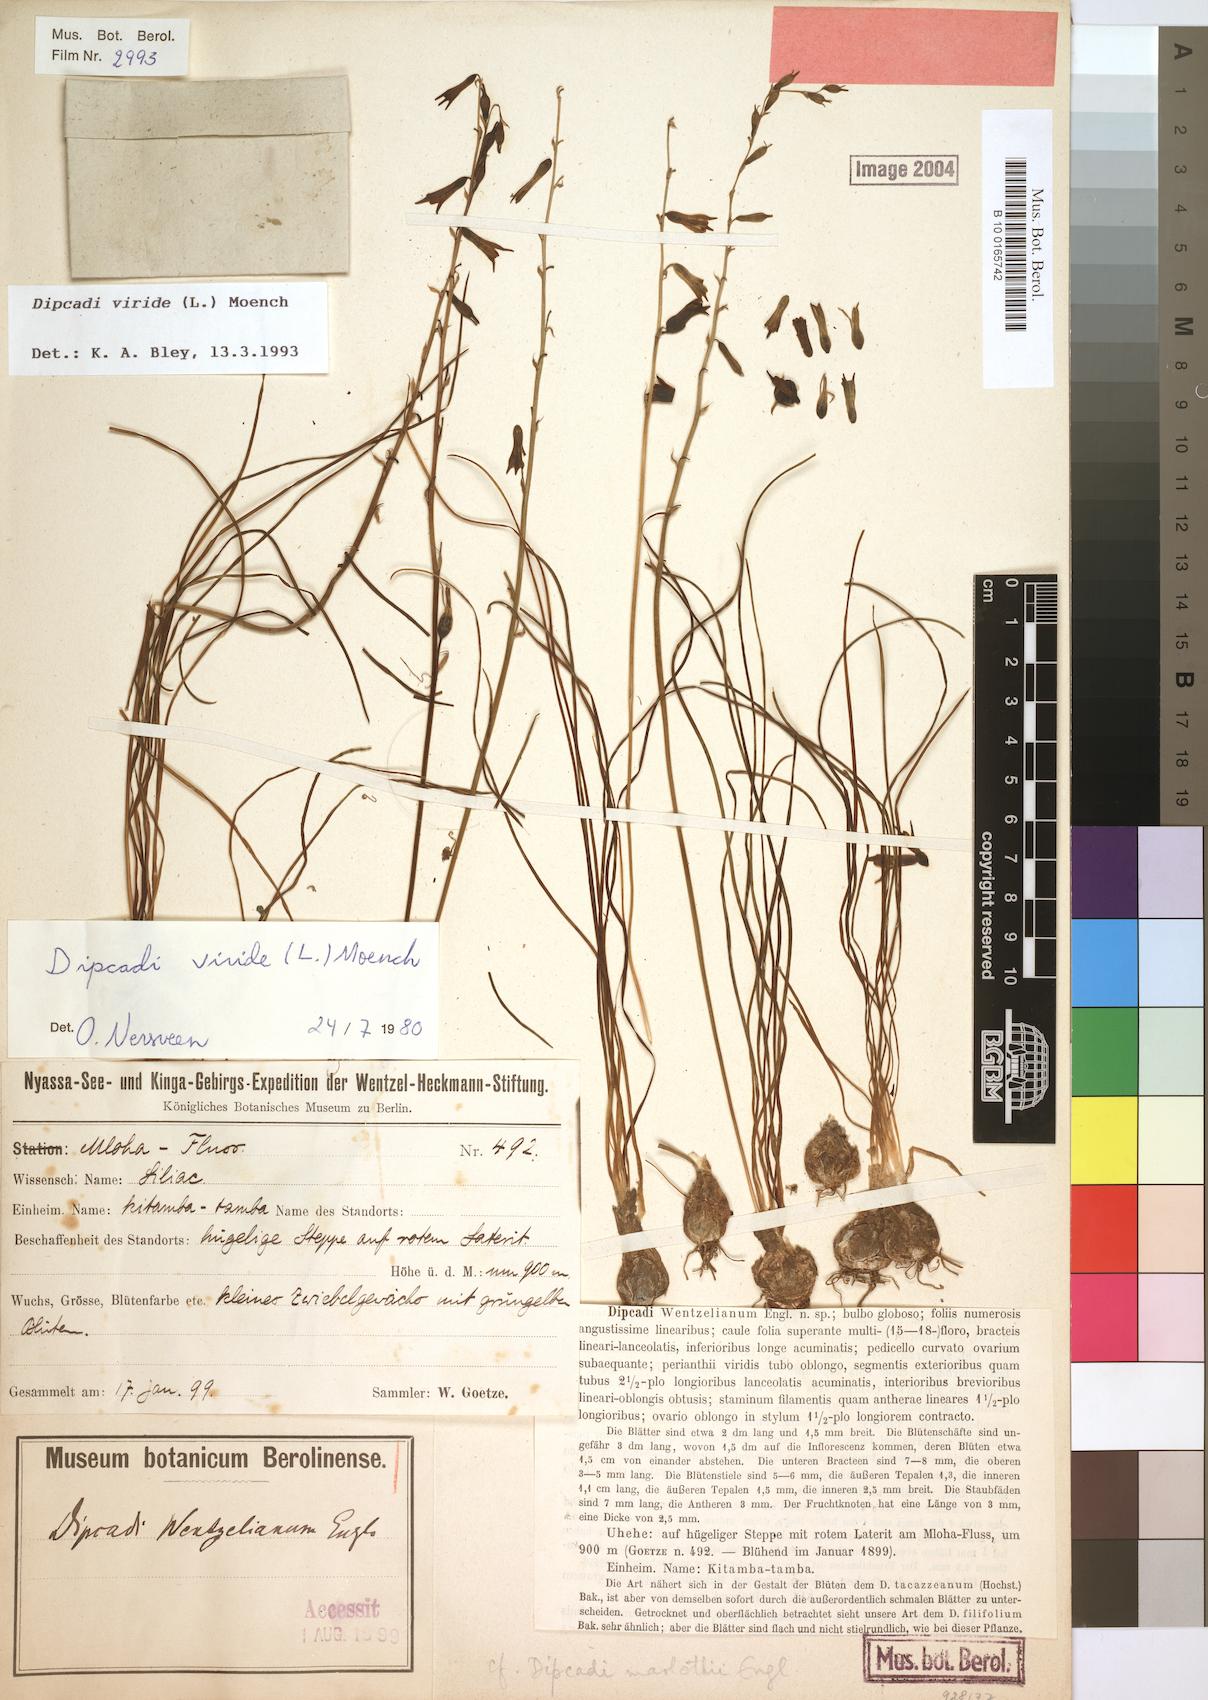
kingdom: Plantae
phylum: Tracheophyta
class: Liliopsida
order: Asparagales
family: Asparagaceae
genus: Dipcadi
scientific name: Dipcadi viride
